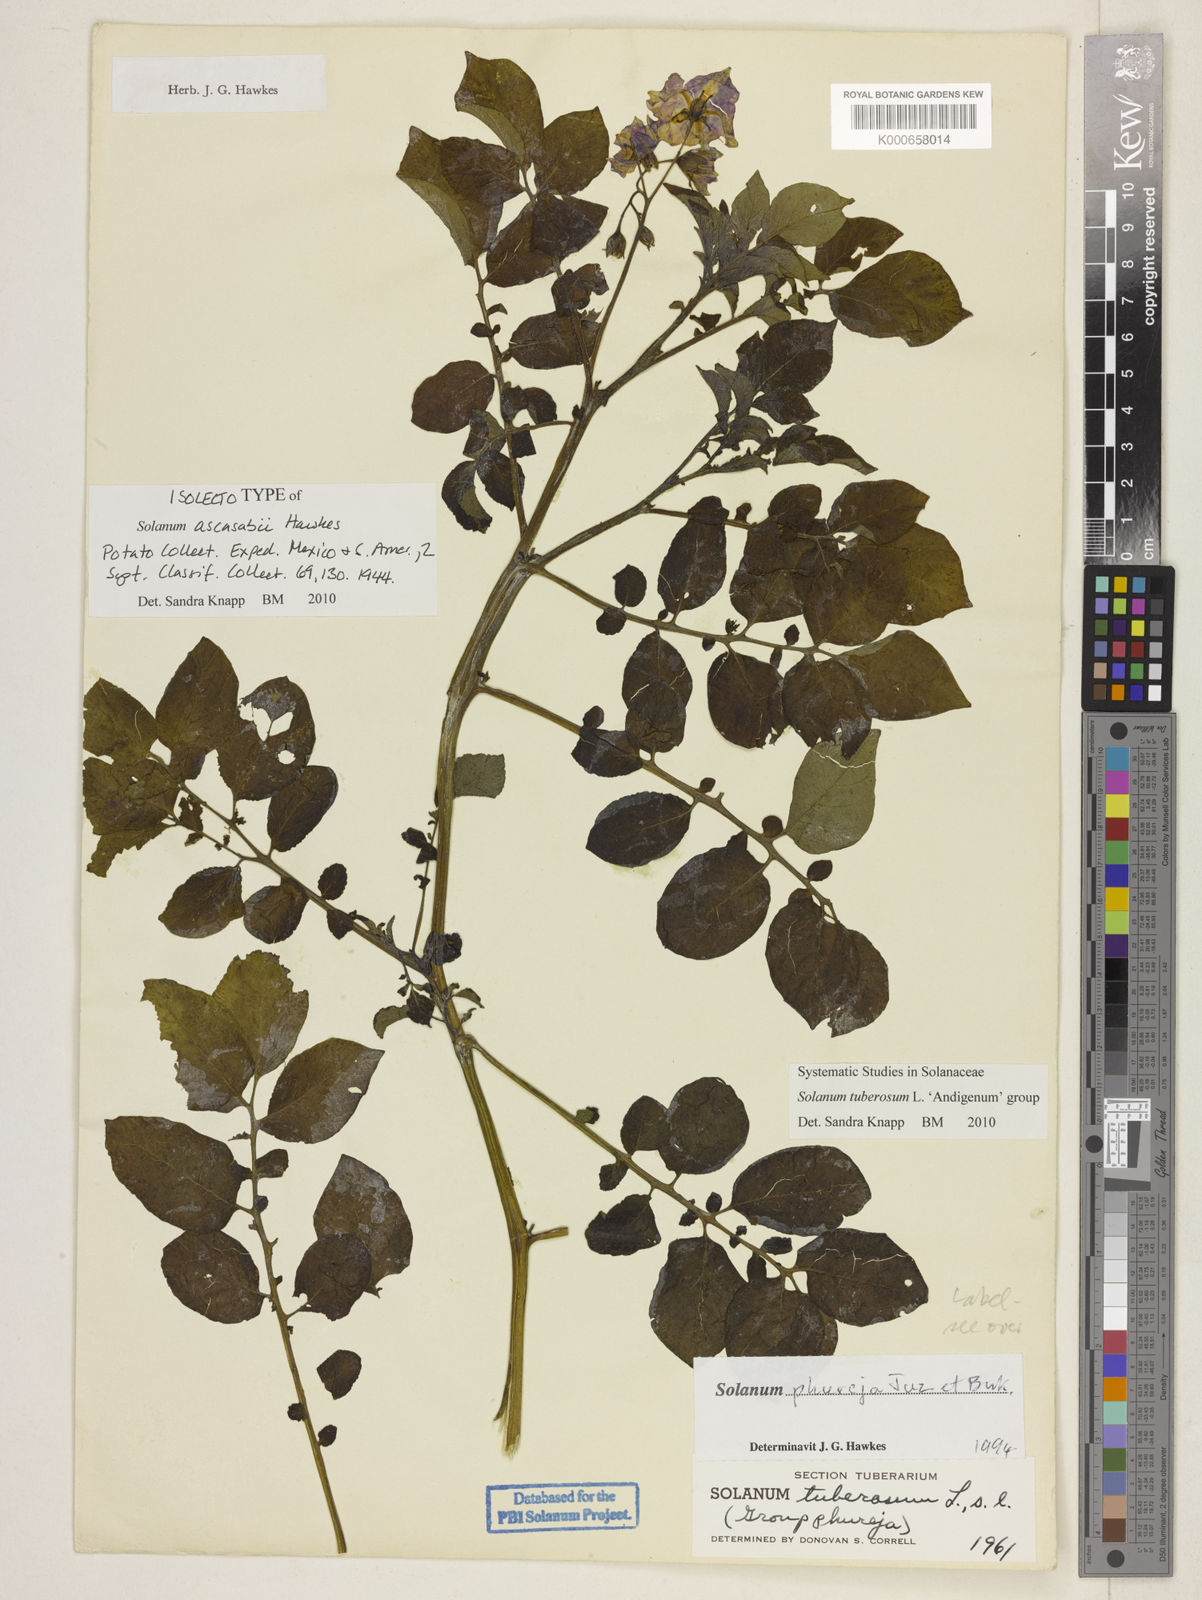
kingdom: Plantae
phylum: Tracheophyta
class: Magnoliopsida
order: Solanales
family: Solanaceae
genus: Solanum
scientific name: Solanum tuberosum
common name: Potato
